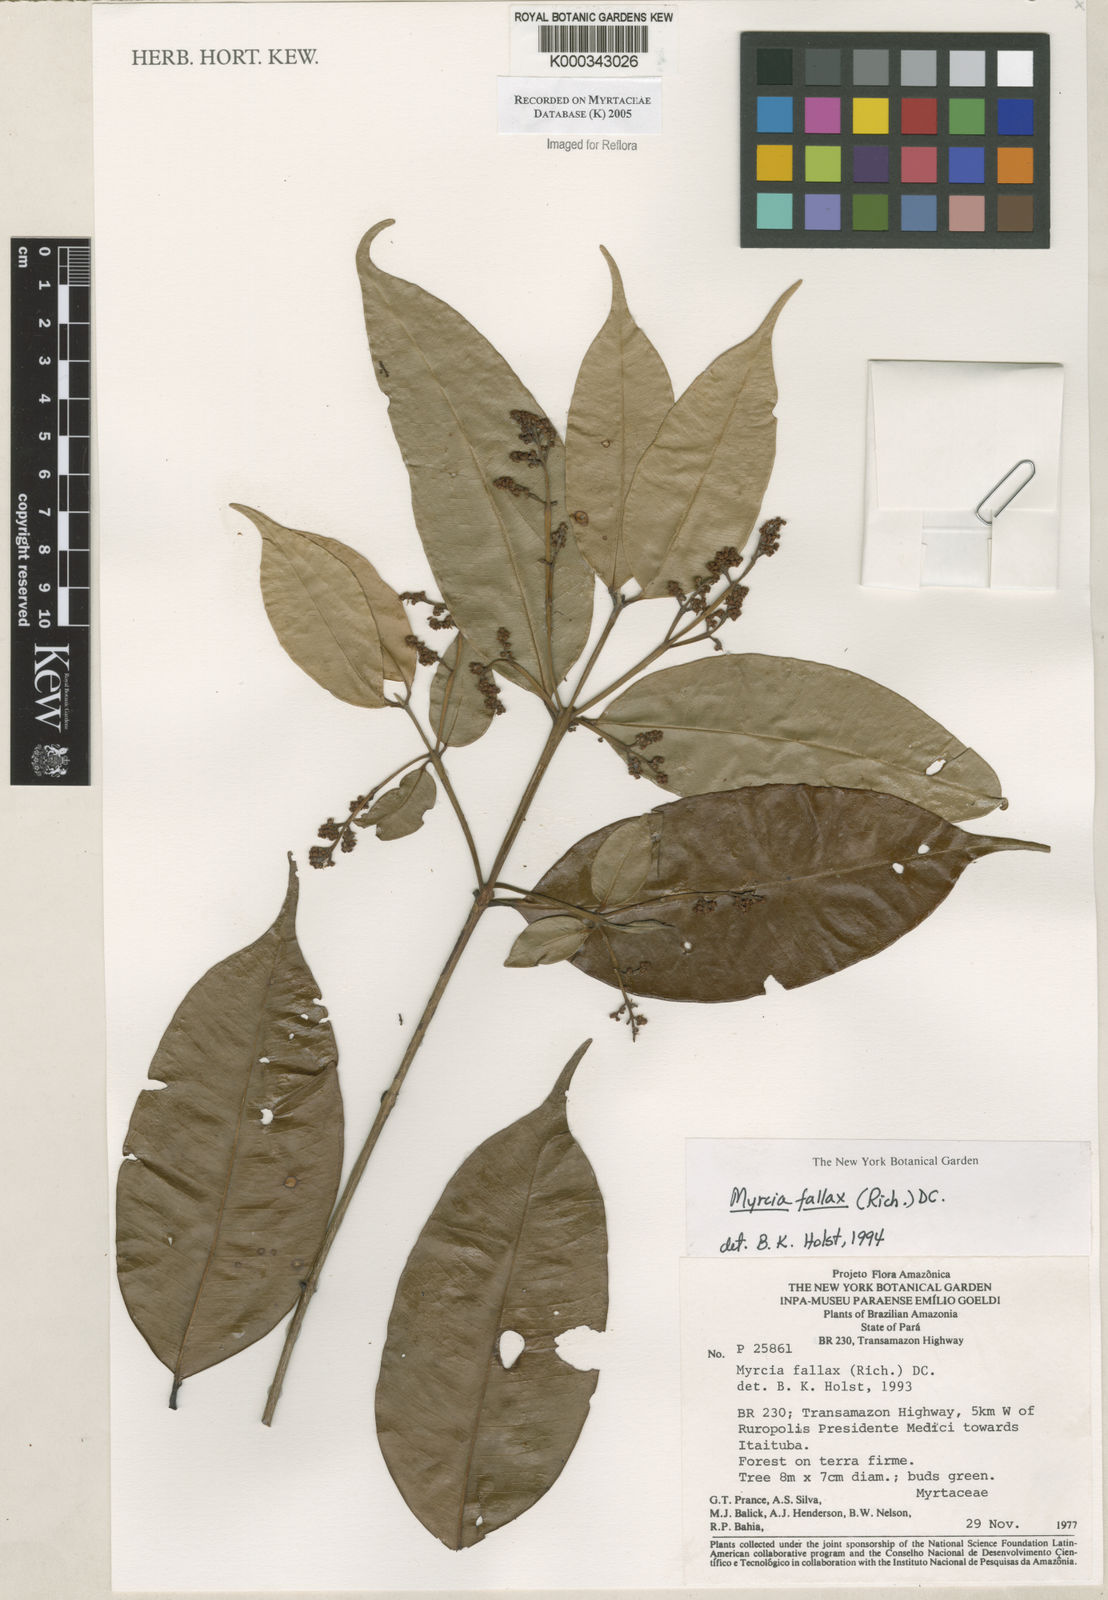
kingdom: Plantae
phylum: Tracheophyta
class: Magnoliopsida
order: Myrtales
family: Myrtaceae
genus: Myrcia
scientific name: Myrcia splendens
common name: Surinam cherry
